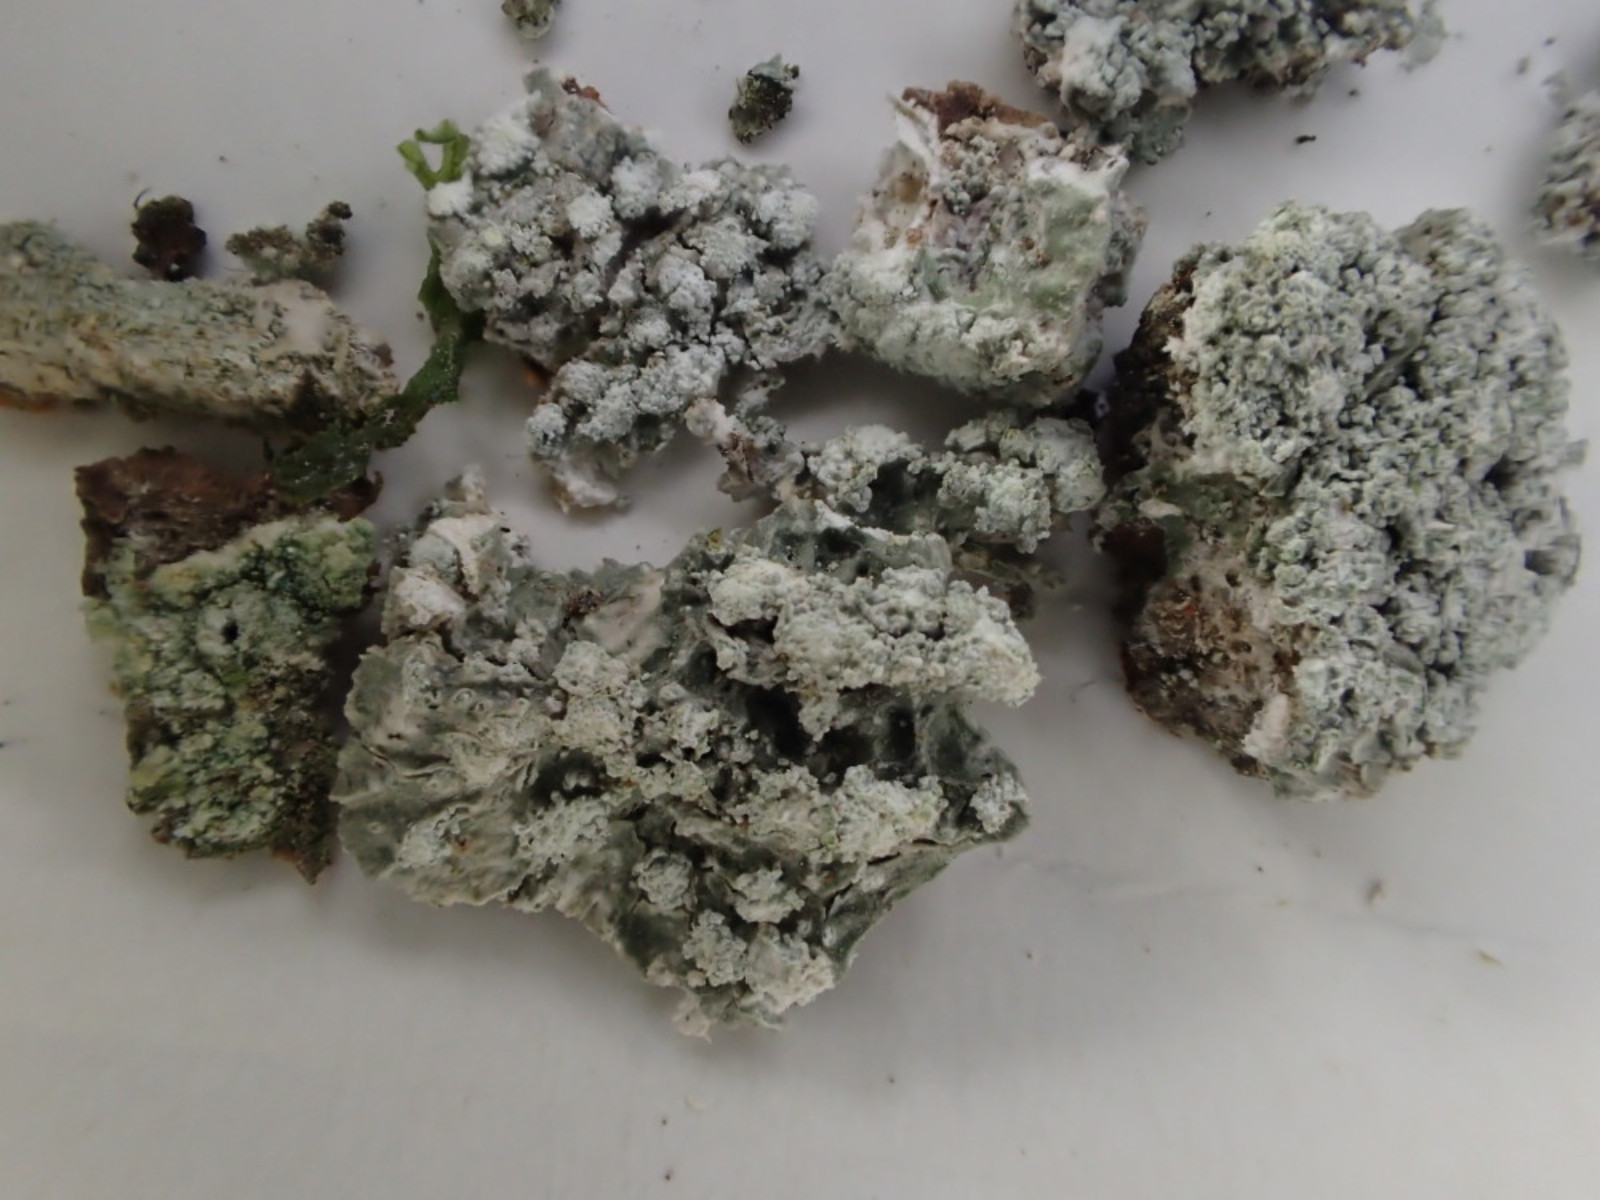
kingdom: Fungi
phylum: Ascomycota
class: Lecanoromycetes
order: Pertusariales
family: Pertusariaceae
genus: Lepra
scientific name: Lepra albescens
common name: hvidmelet prikvortelav
